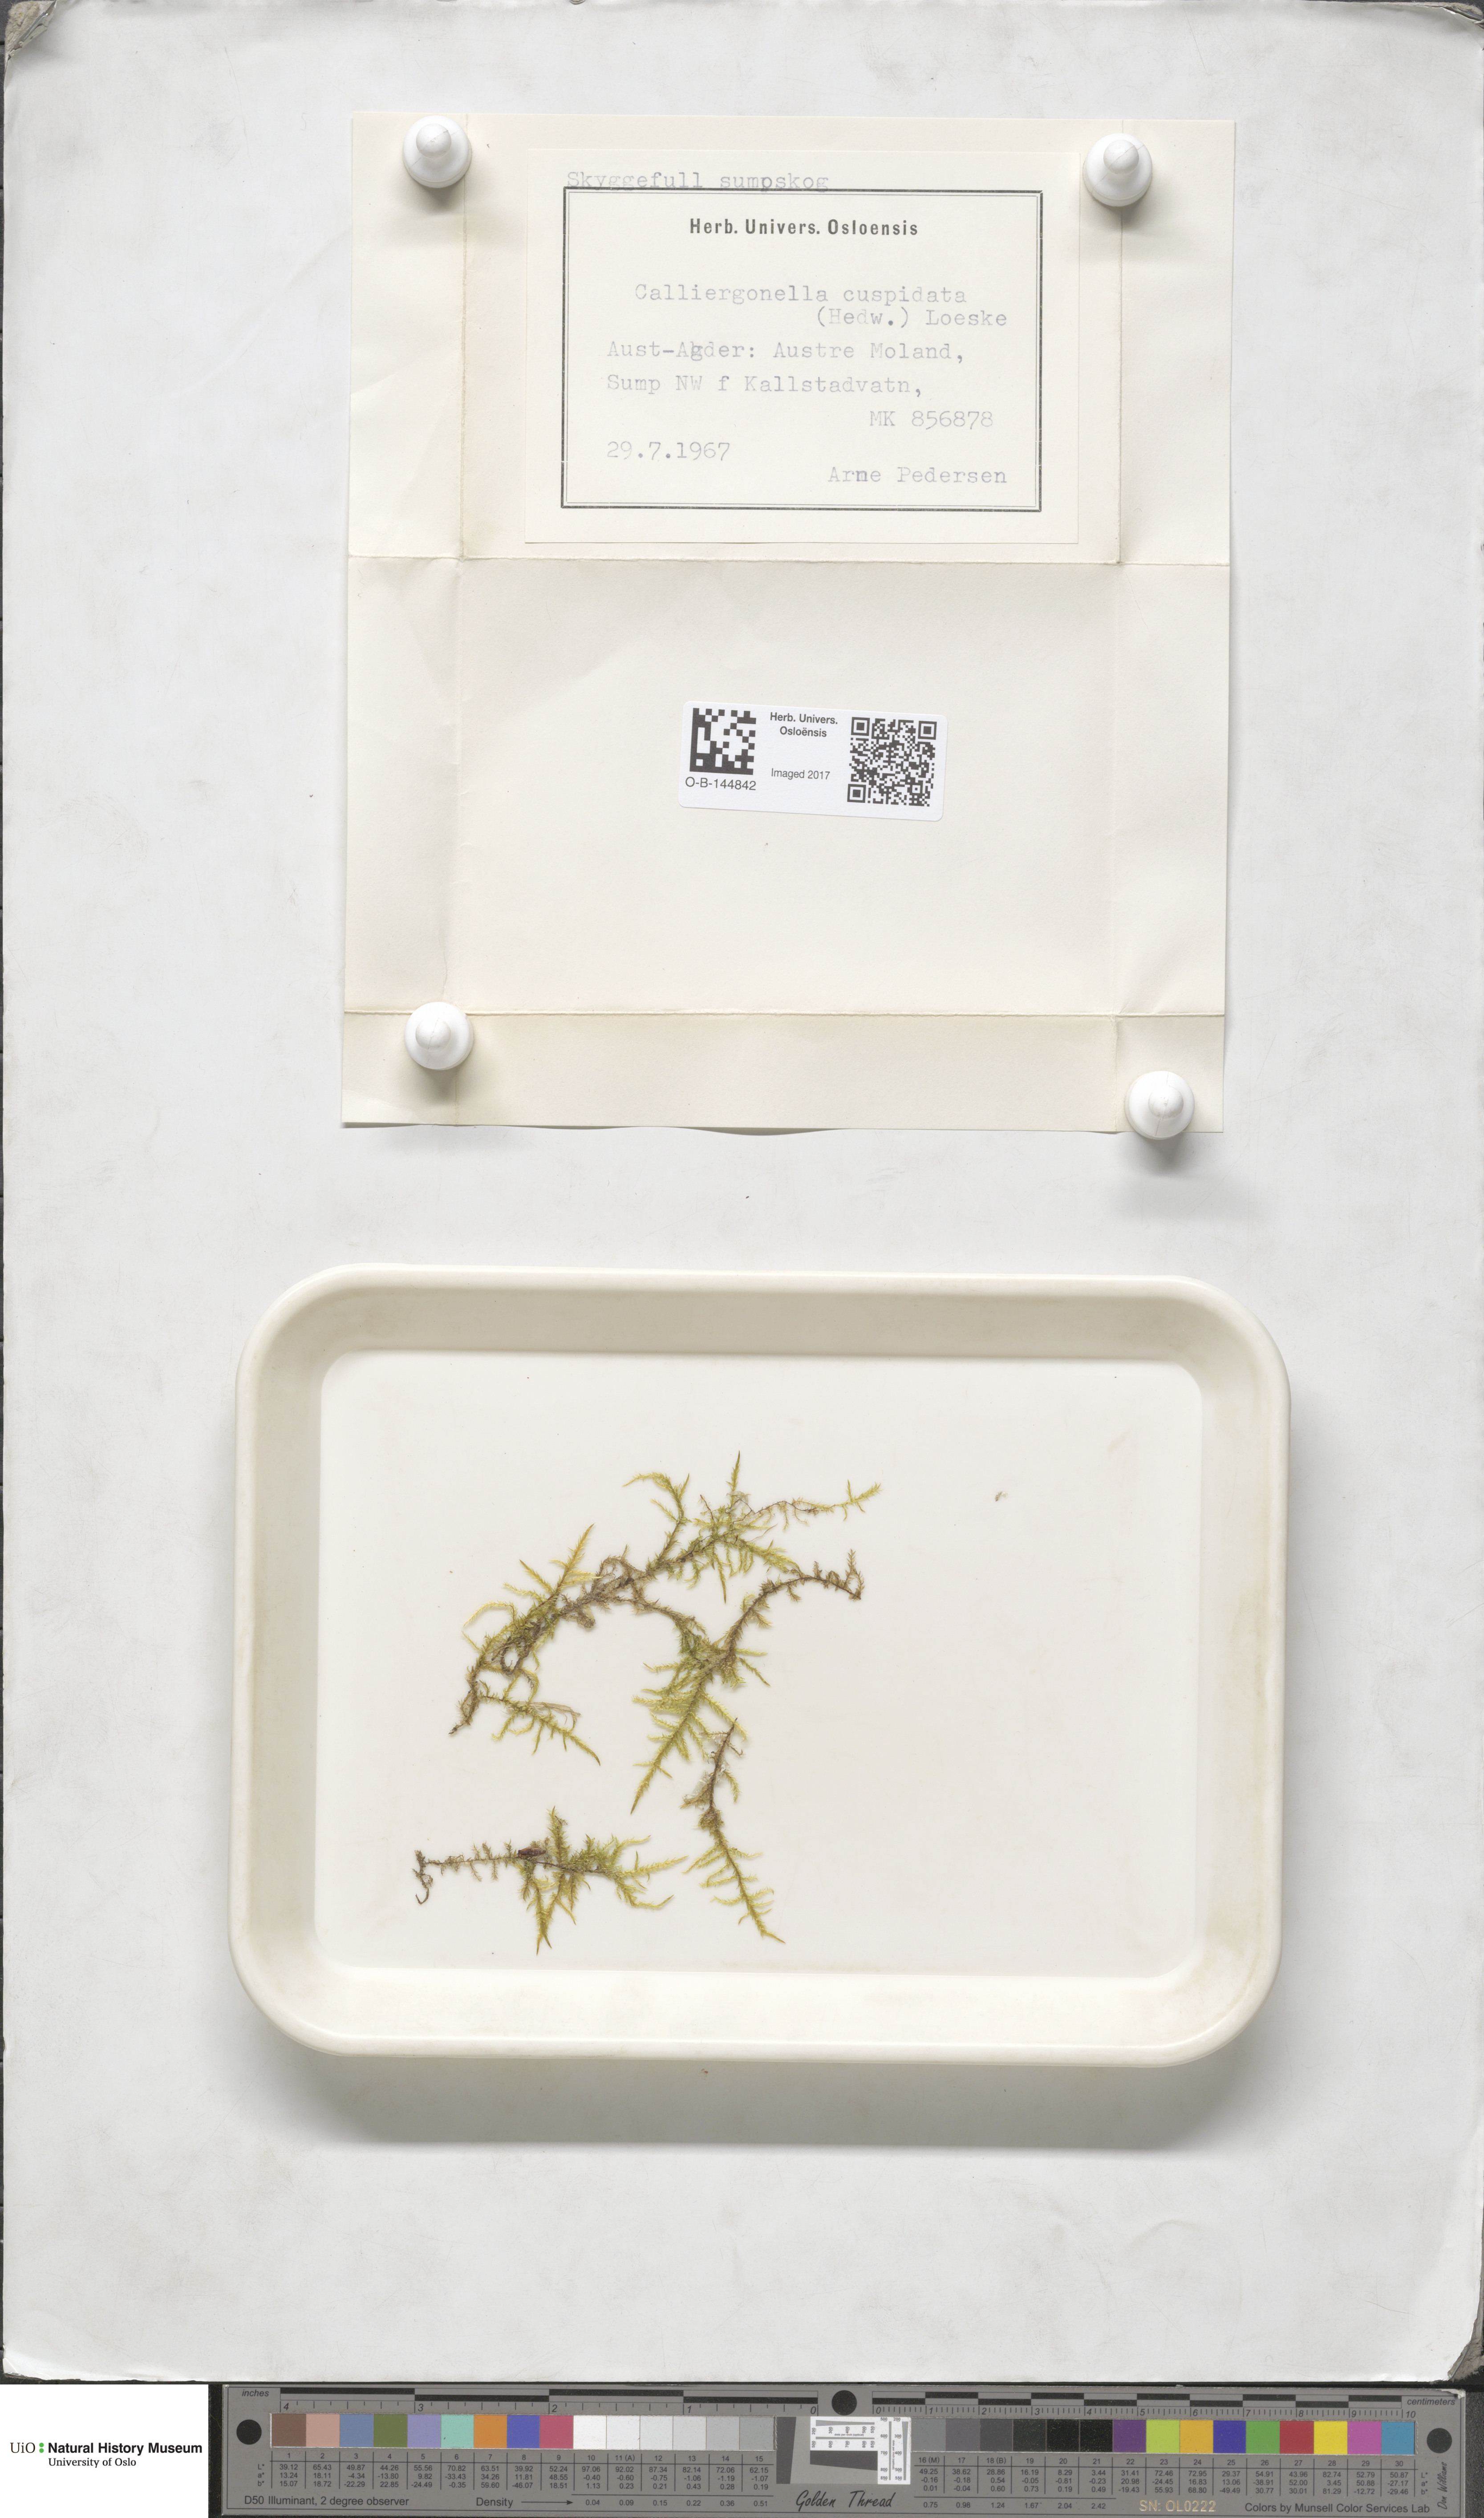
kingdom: Plantae
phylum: Bryophyta
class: Bryopsida
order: Hypnales
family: Pylaisiaceae
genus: Calliergonella
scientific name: Calliergonella cuspidata
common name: Common large wetland moss
